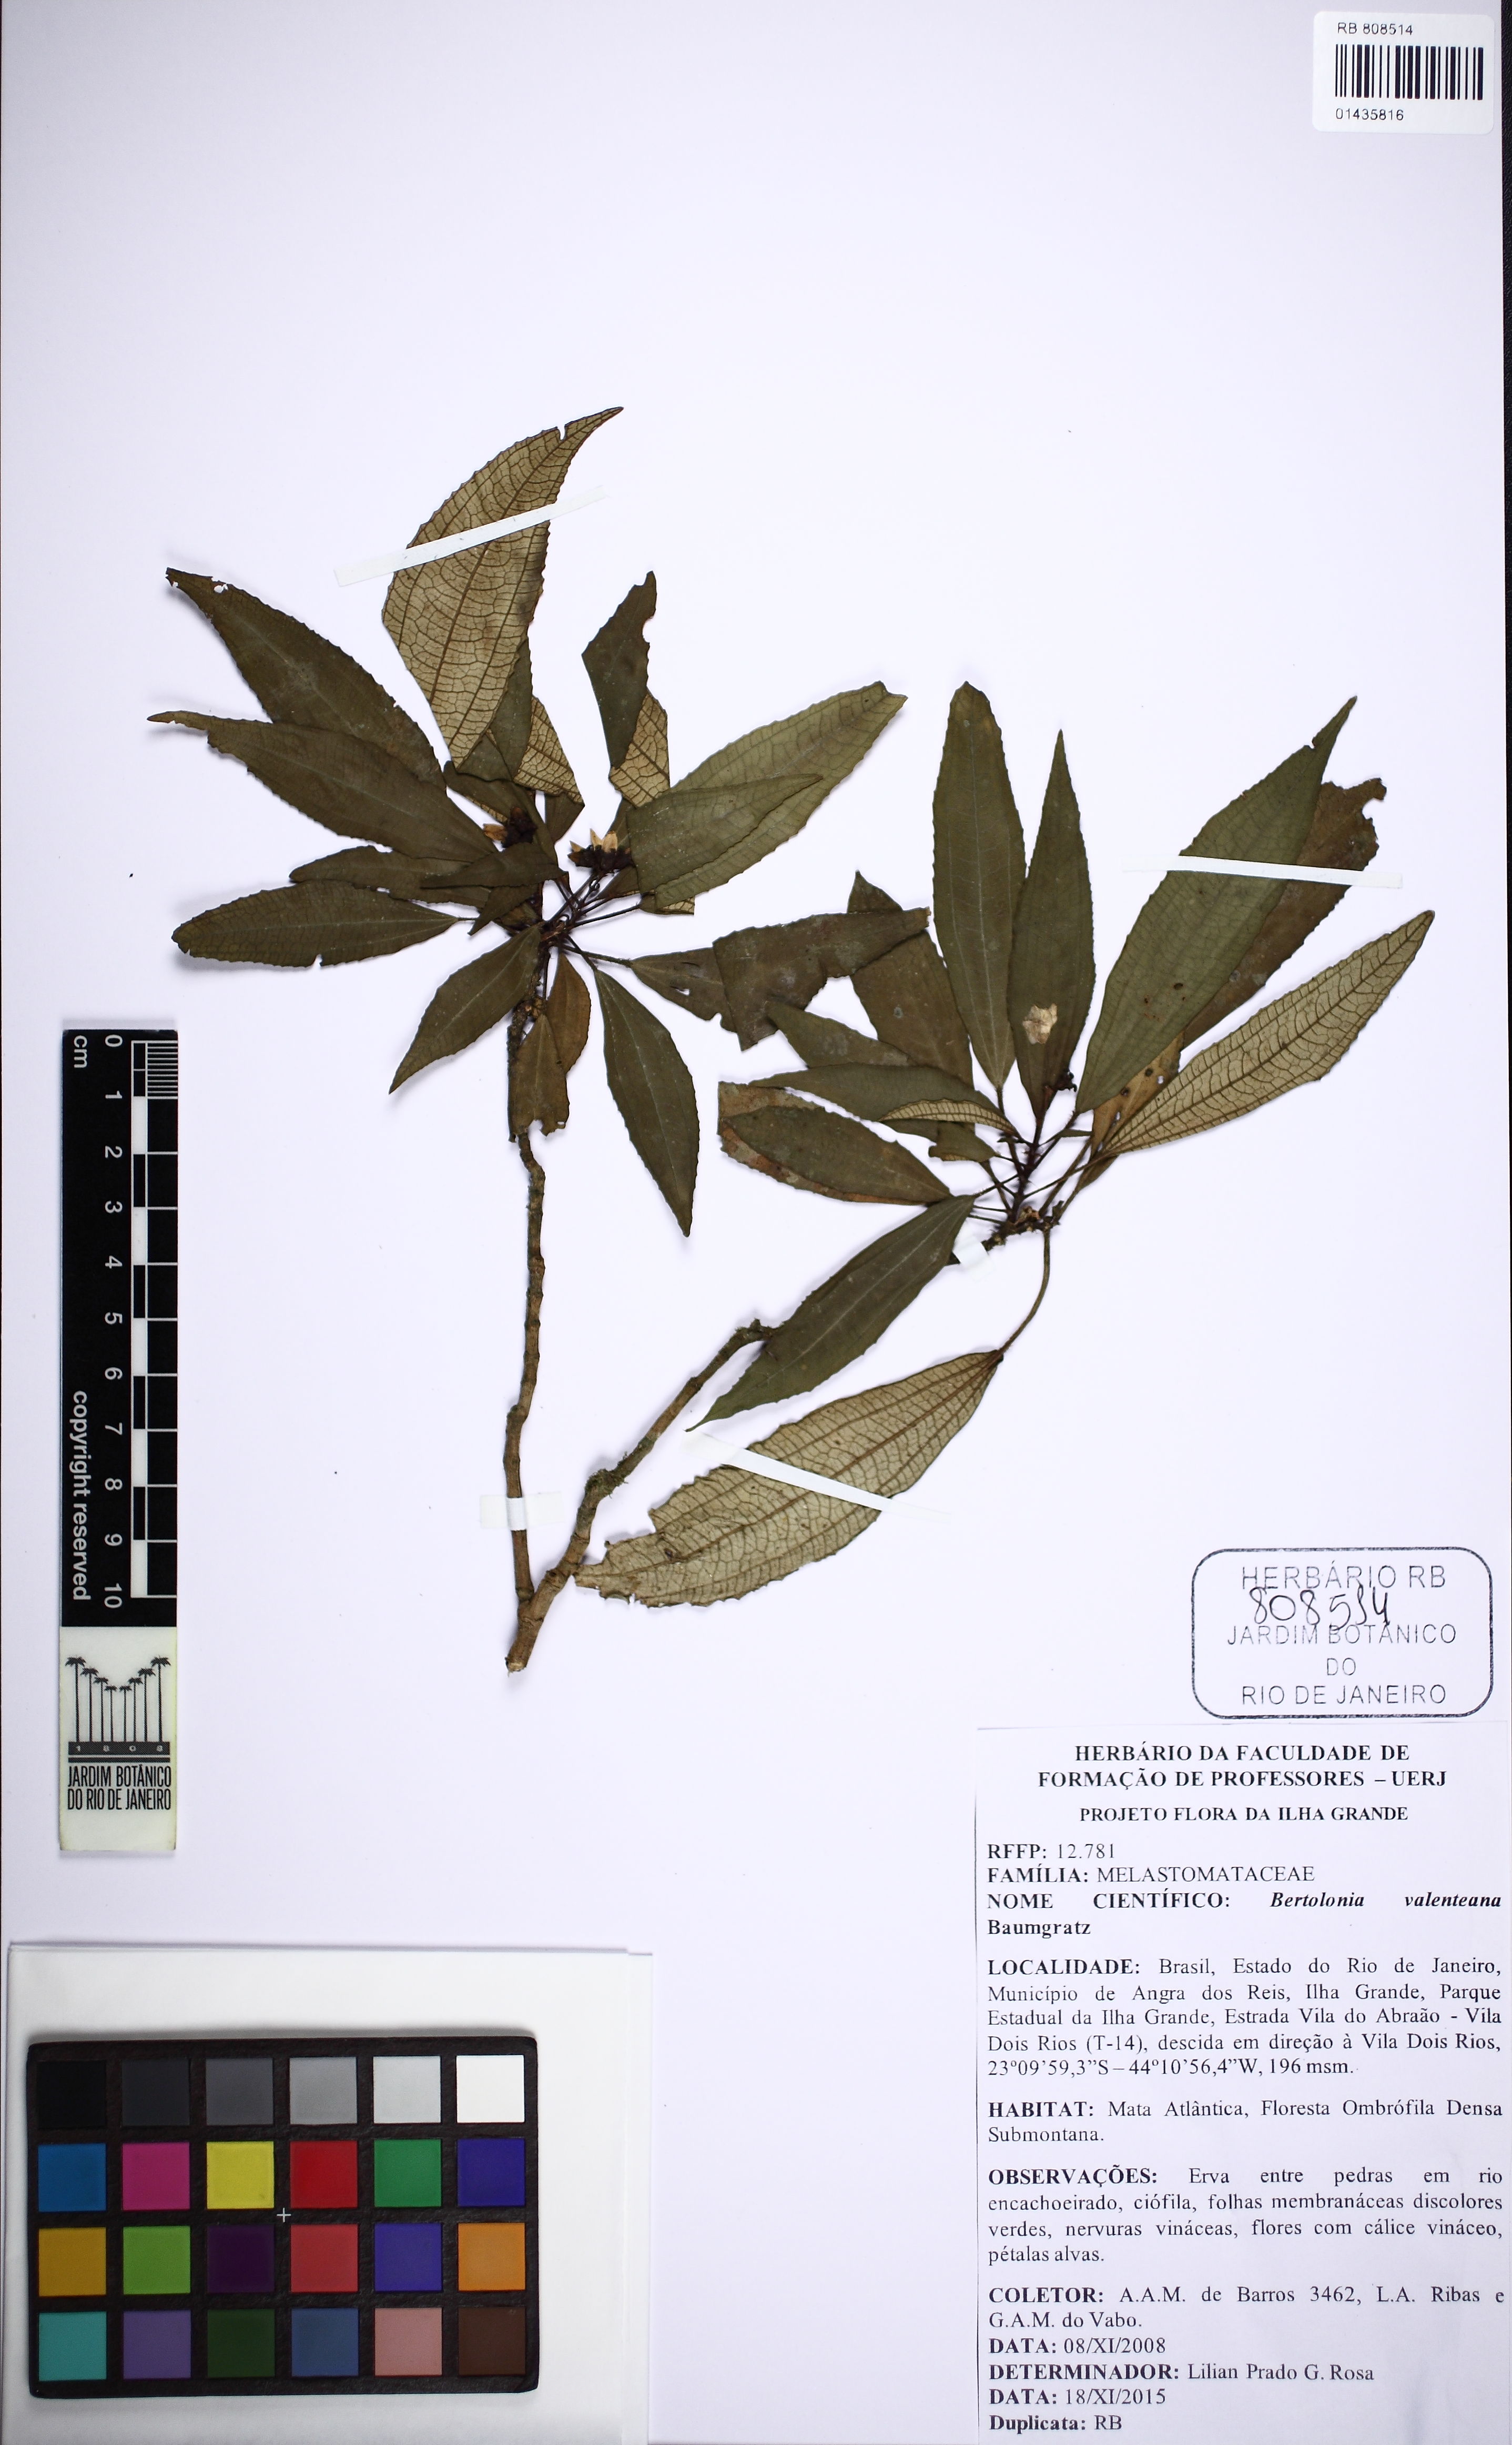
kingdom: Plantae
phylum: Tracheophyta
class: Magnoliopsida
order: Myrtales
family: Melastomataceae
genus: Bertolonia
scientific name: Bertolonia valenteana
